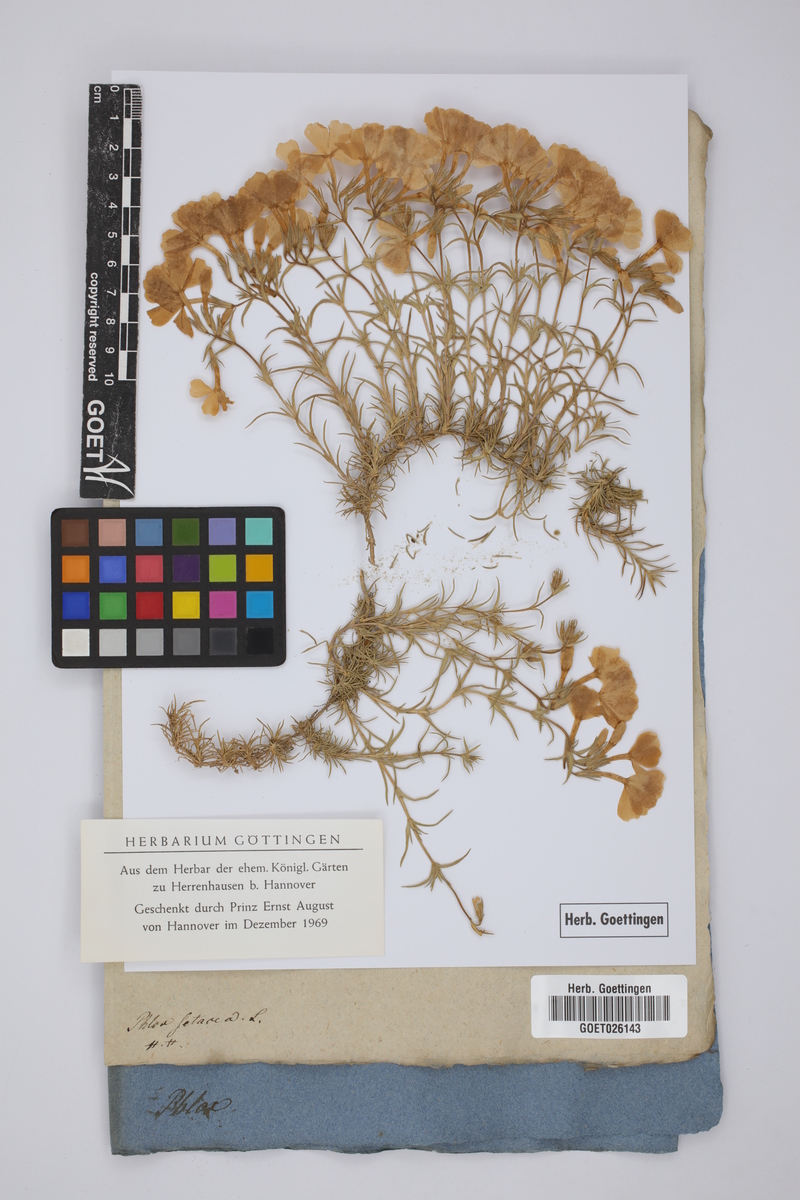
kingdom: Plantae
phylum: Tracheophyta
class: Magnoliopsida
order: Ericales
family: Polemoniaceae
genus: Phlox
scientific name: Phlox subulata
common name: Moss phlox
